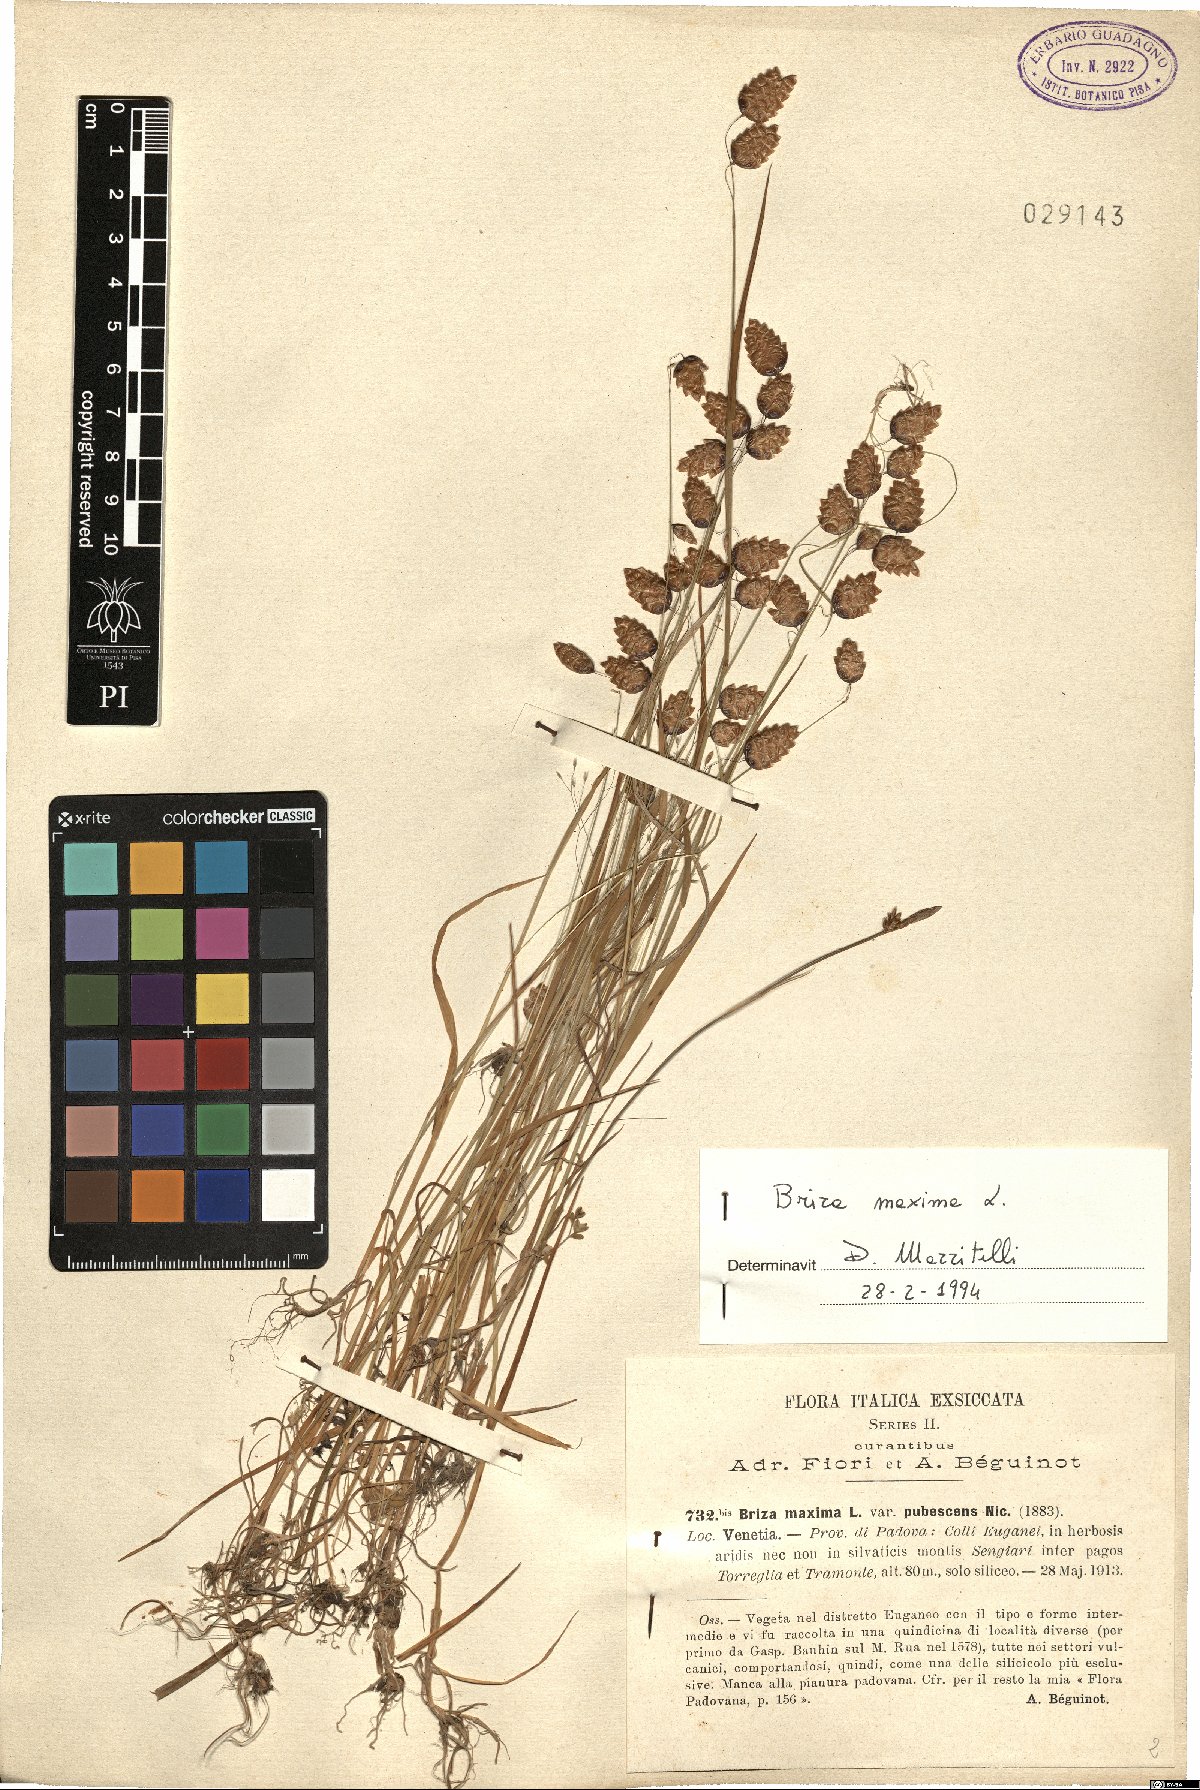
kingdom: Plantae
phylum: Tracheophyta
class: Liliopsida
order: Poales
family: Poaceae
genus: Briza
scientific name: Briza maxima
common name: Big quakinggrass
